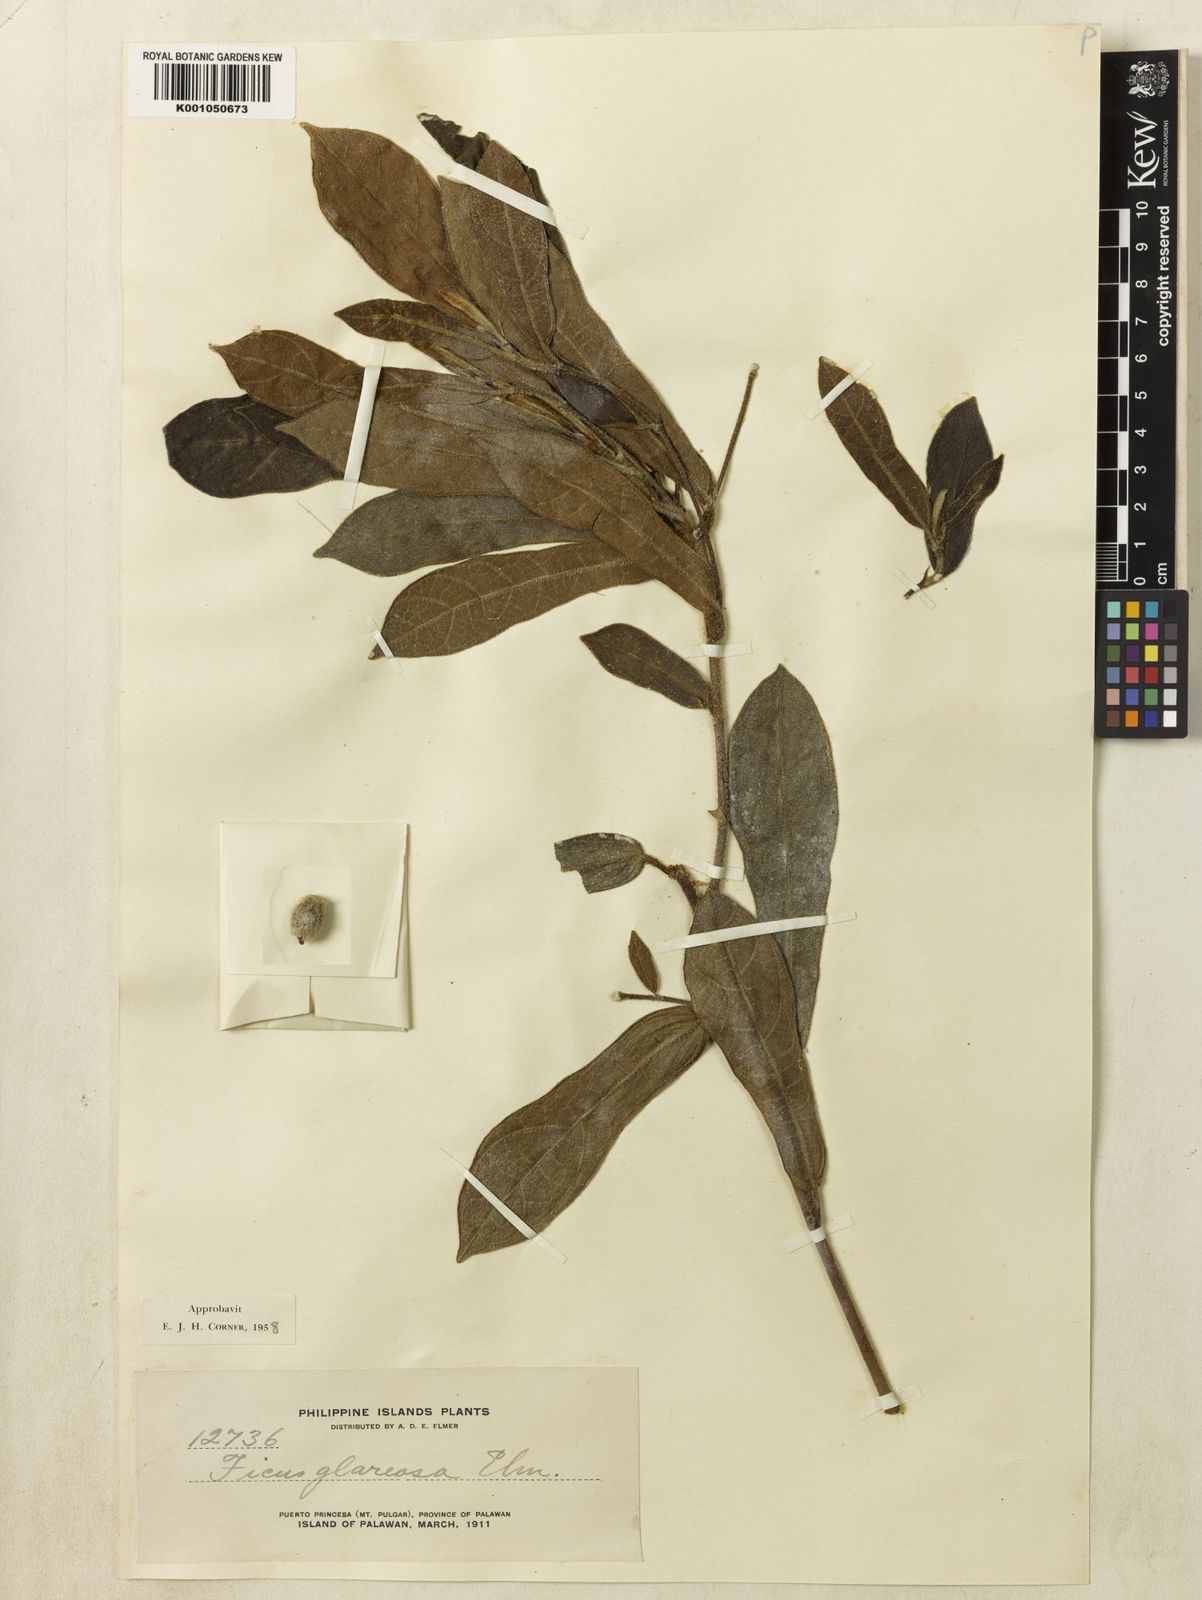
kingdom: Plantae
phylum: Tracheophyta
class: Magnoliopsida
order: Rosales
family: Moraceae
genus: Ficus
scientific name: Ficus glareosa
